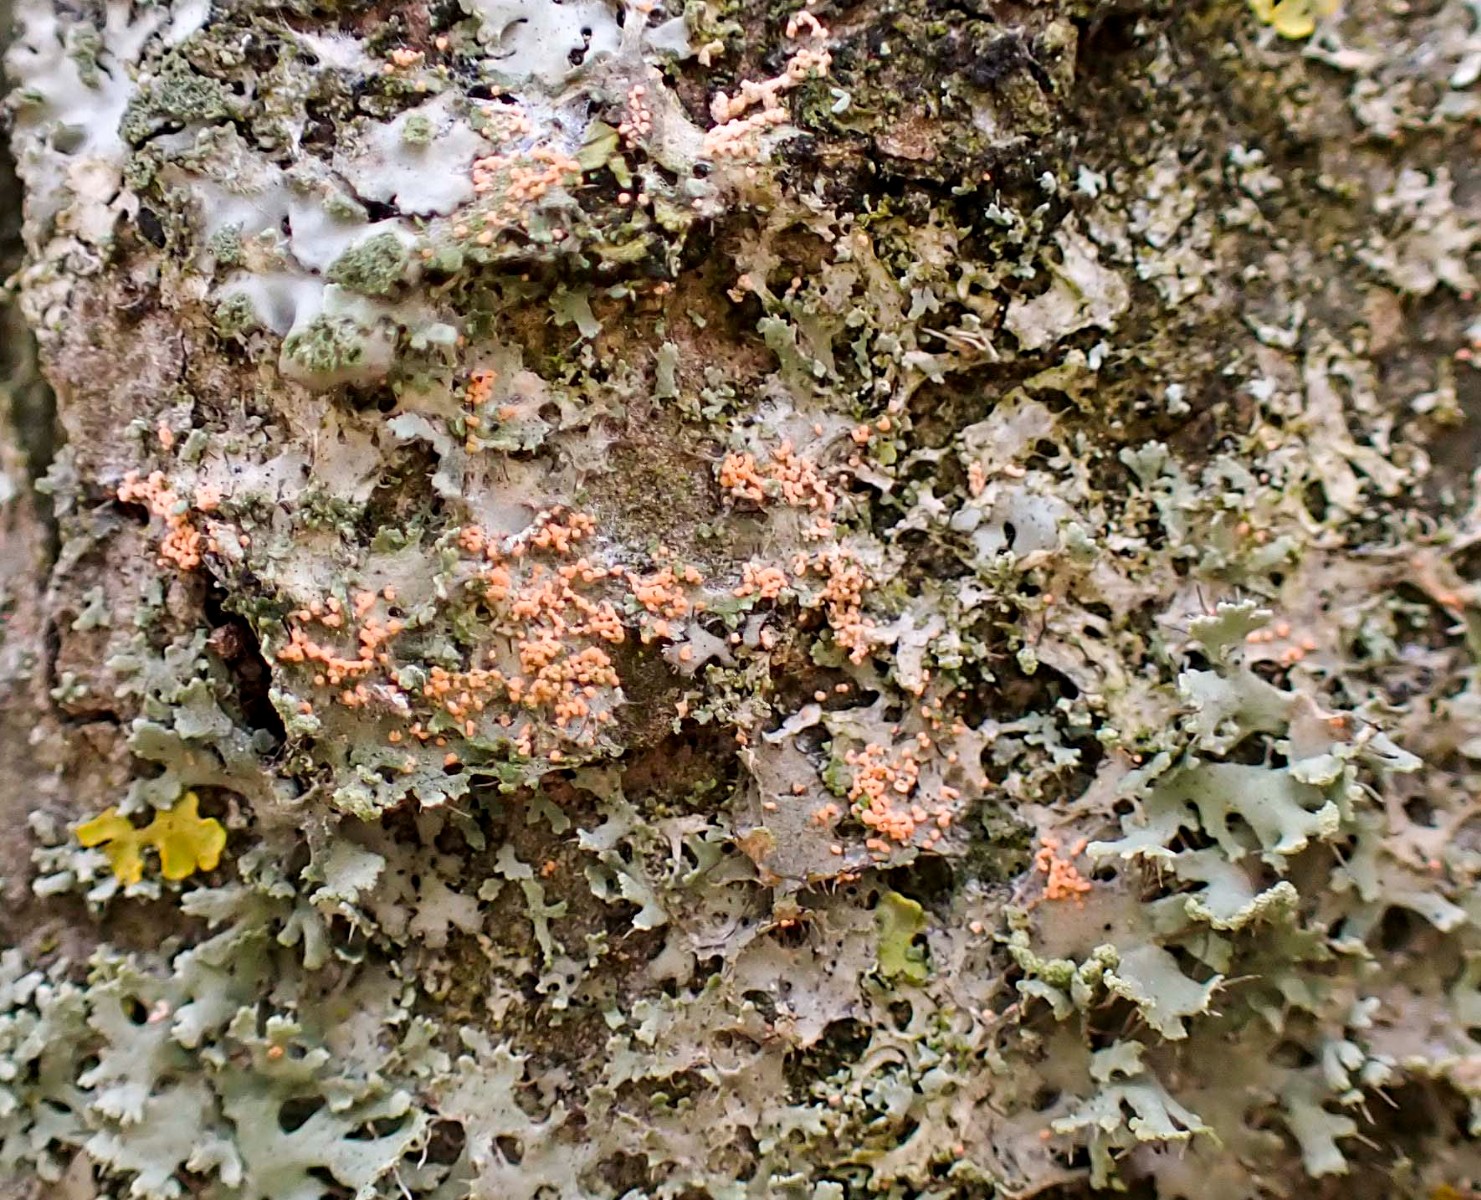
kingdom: Fungi
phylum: Basidiomycota
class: Agaricomycetes
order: Corticiales
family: Corticiaceae
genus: Erythricium
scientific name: Erythricium aurantiacum
